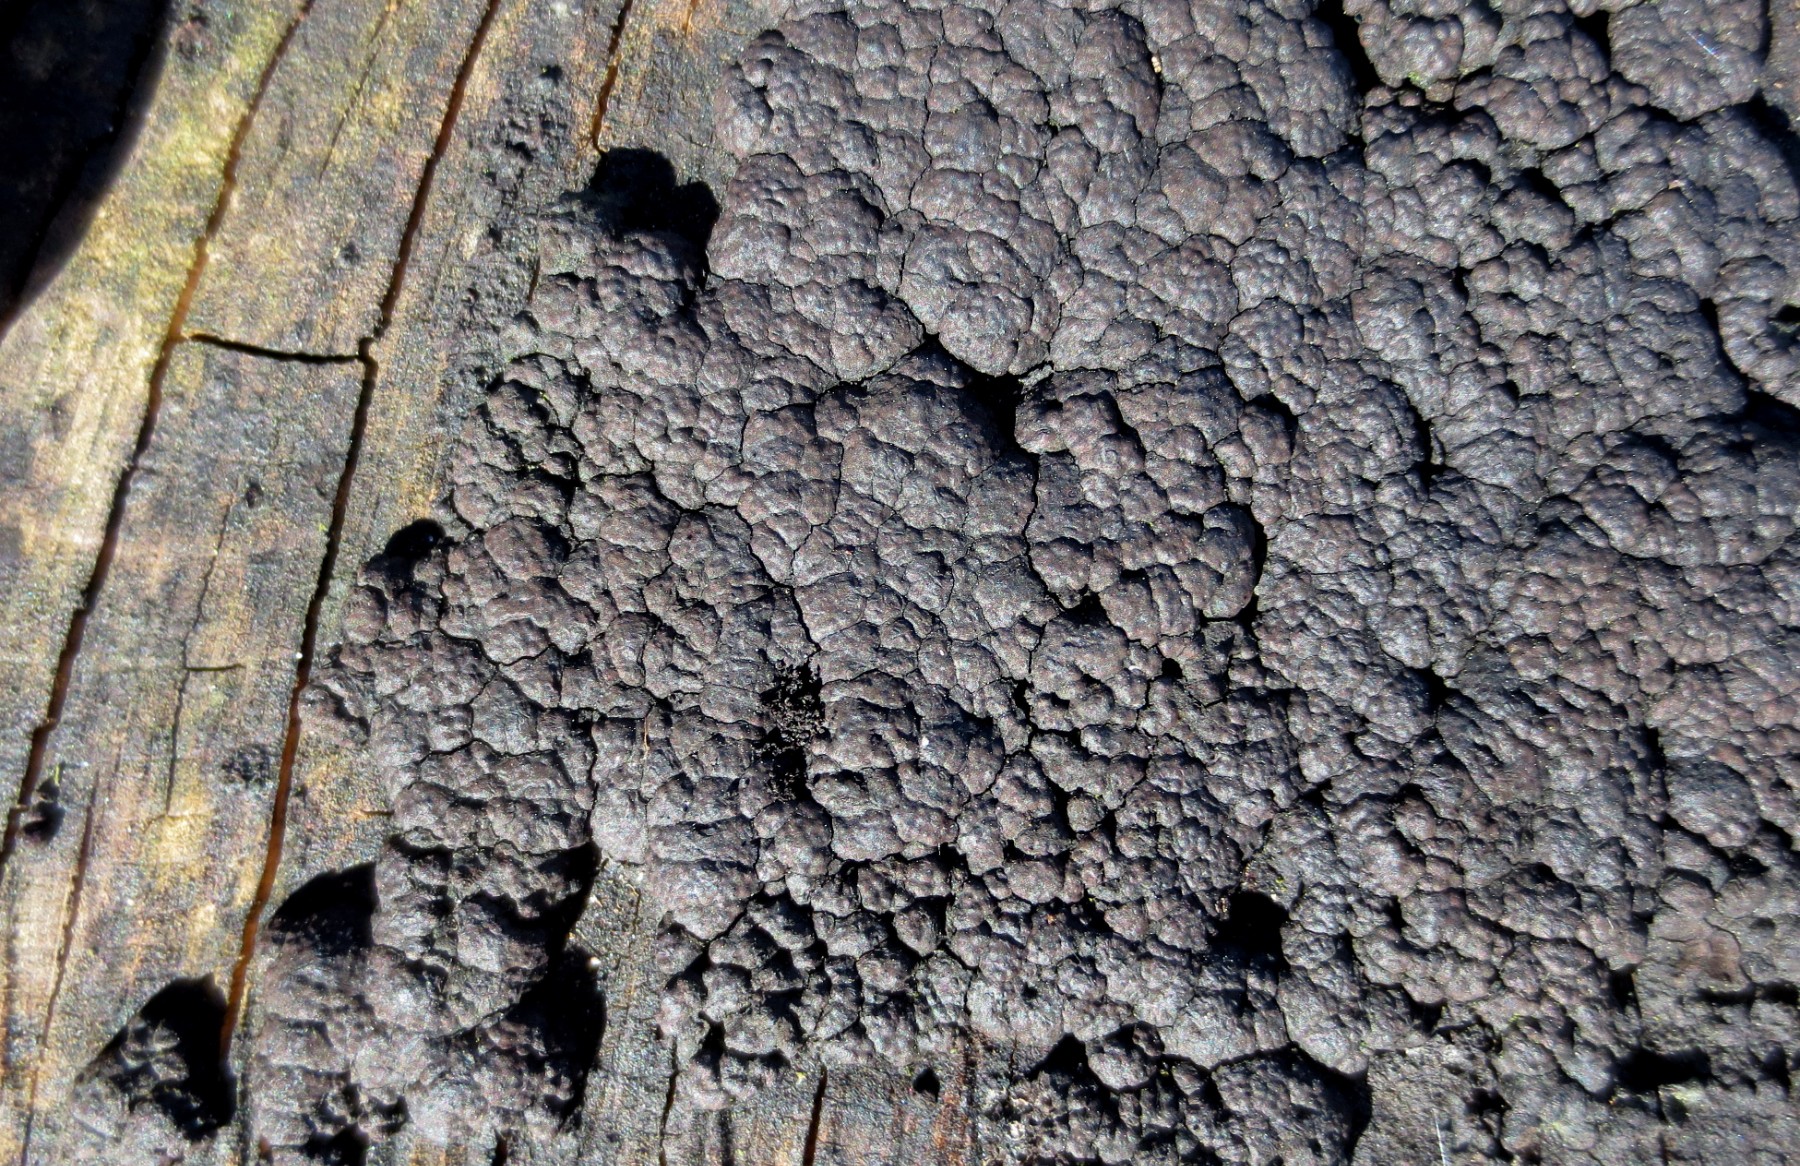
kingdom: Fungi
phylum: Ascomycota
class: Sordariomycetes
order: Xylariales
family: Hypoxylaceae
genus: Jackrogersella
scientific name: Jackrogersella cohaerens
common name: sammenflydende kulbær
